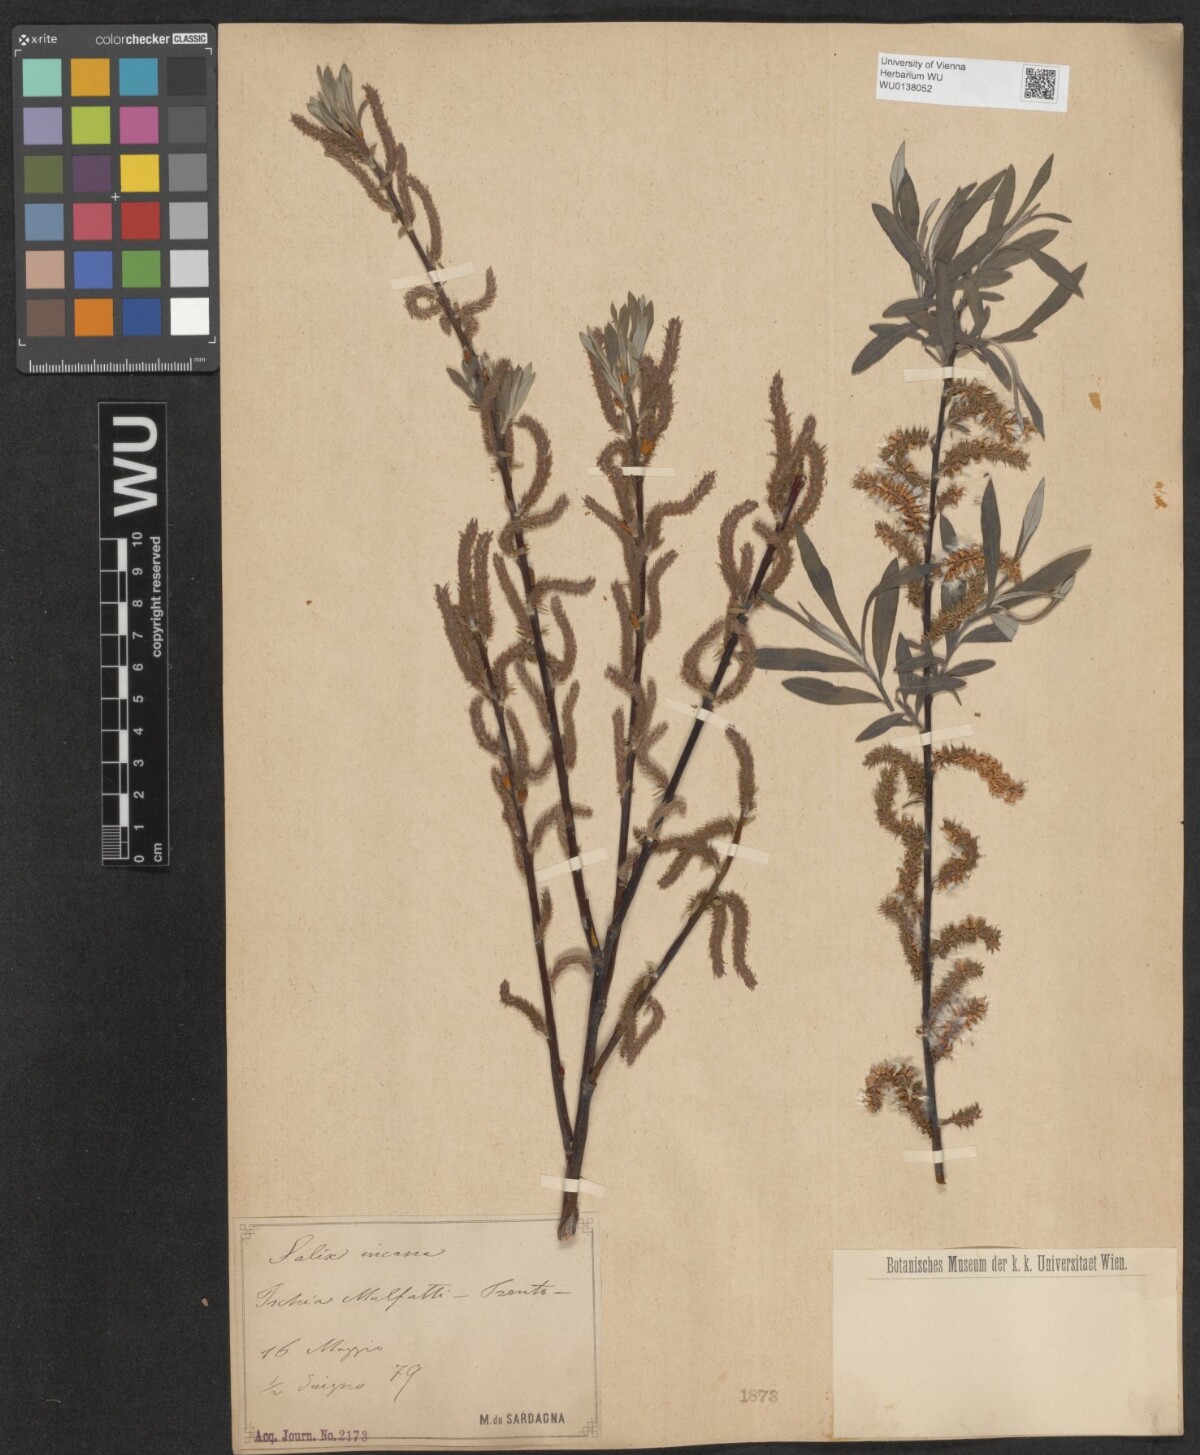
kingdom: Plantae
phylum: Tracheophyta
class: Magnoliopsida
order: Malpighiales
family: Salicaceae
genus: Salix
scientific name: Salix eleagnos
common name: Elaeagnus willow
